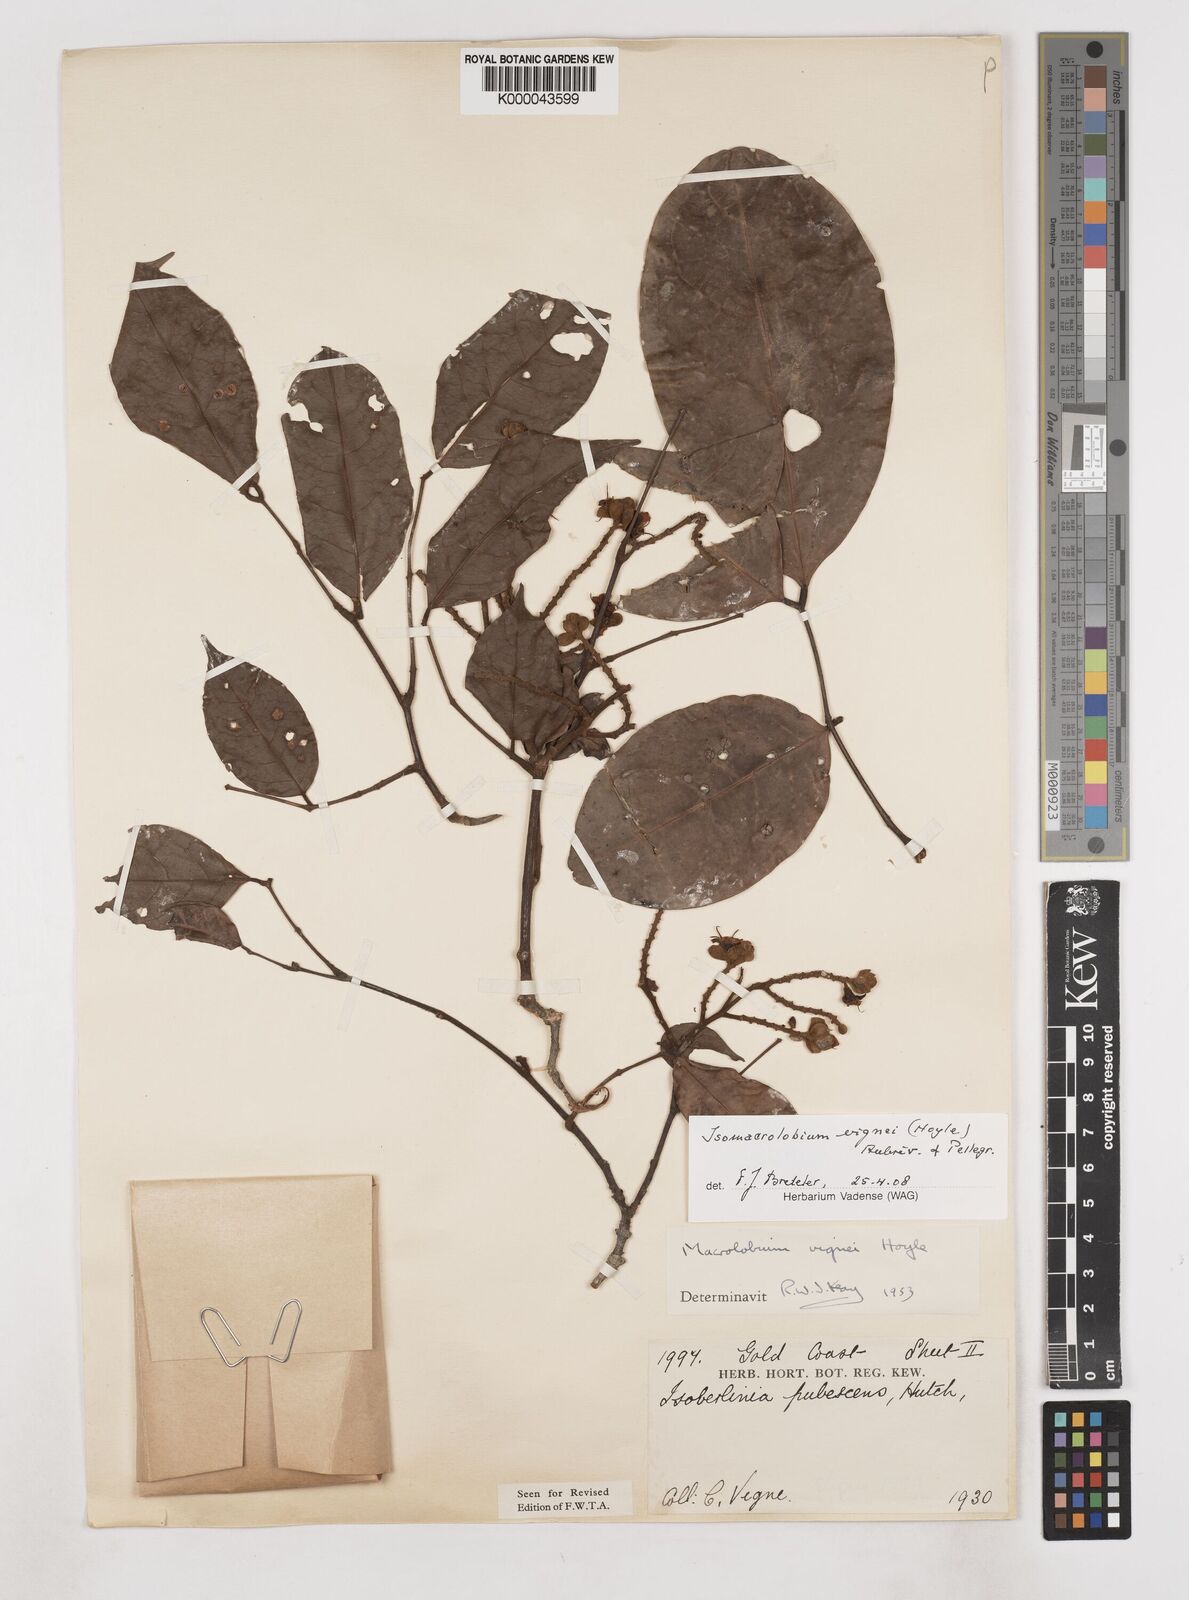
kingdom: Plantae
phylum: Tracheophyta
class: Magnoliopsida
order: Fabales
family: Fabaceae
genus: Englerodendron
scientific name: Englerodendron vignei
